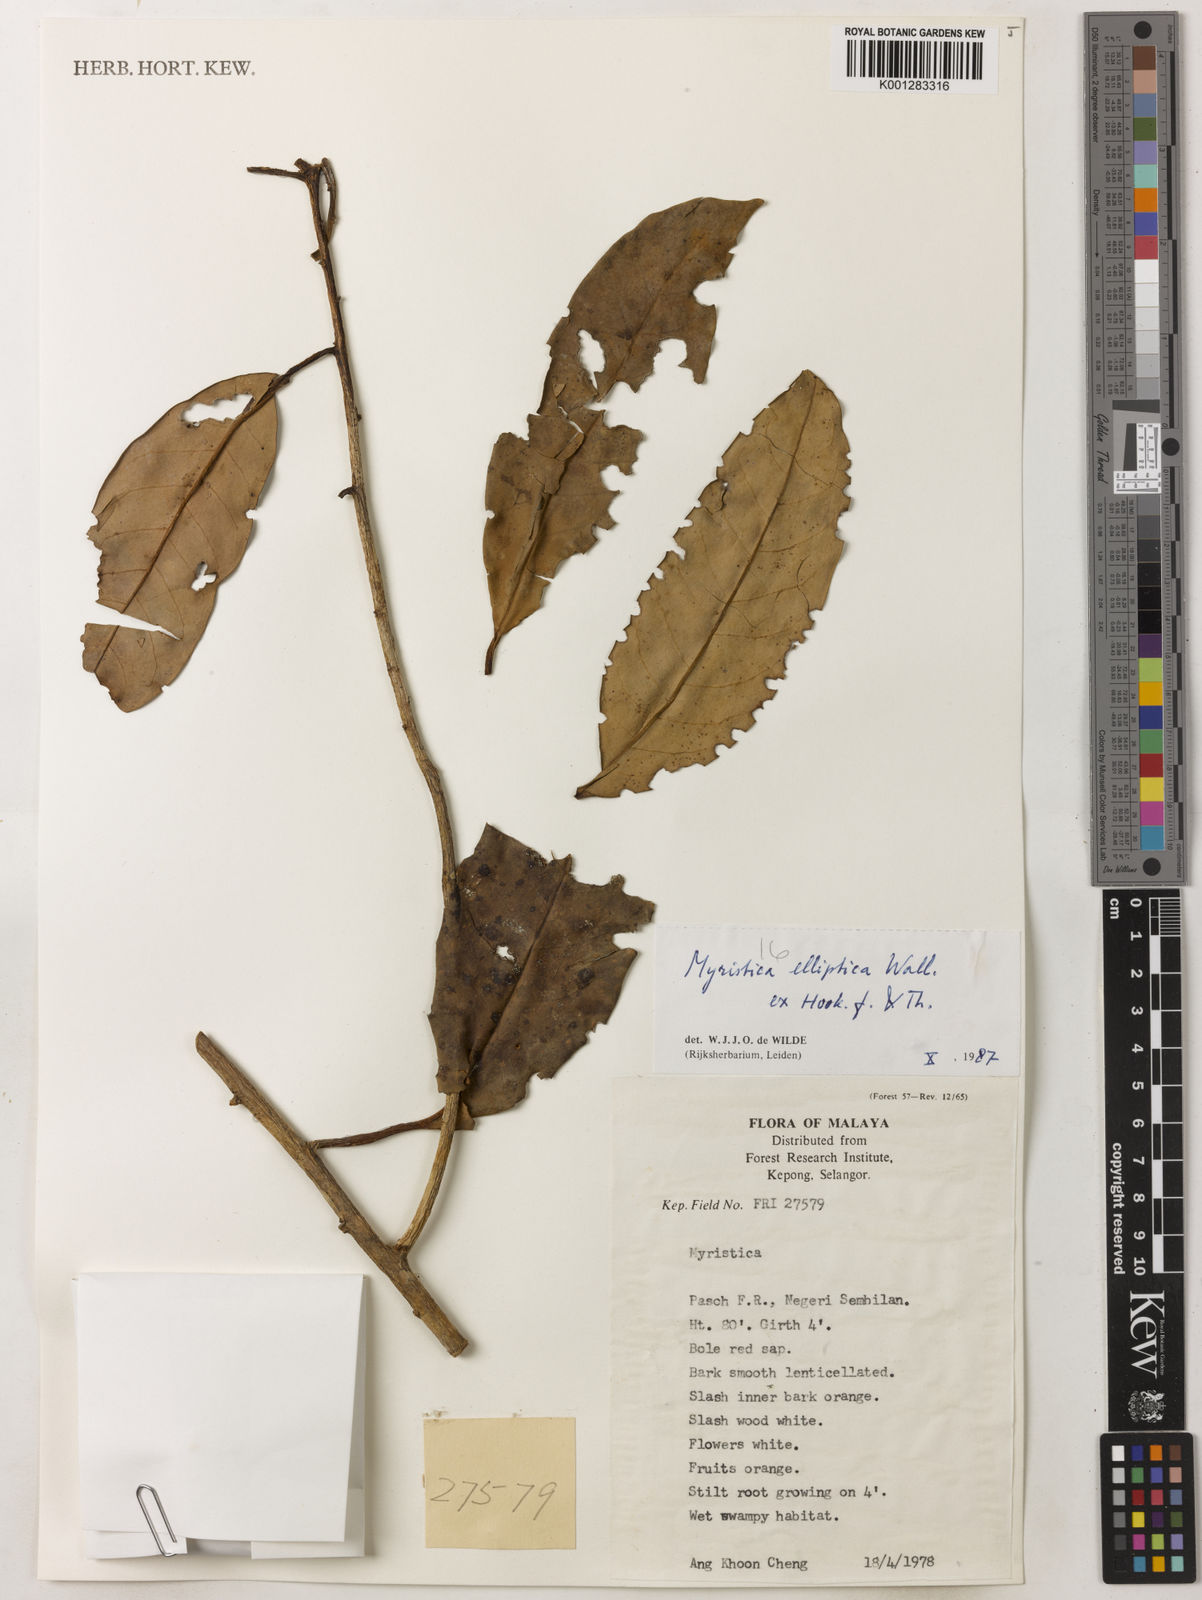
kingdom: Plantae
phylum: Tracheophyta
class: Magnoliopsida
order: Magnoliales
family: Myristicaceae
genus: Myristica
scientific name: Myristica elliptica
